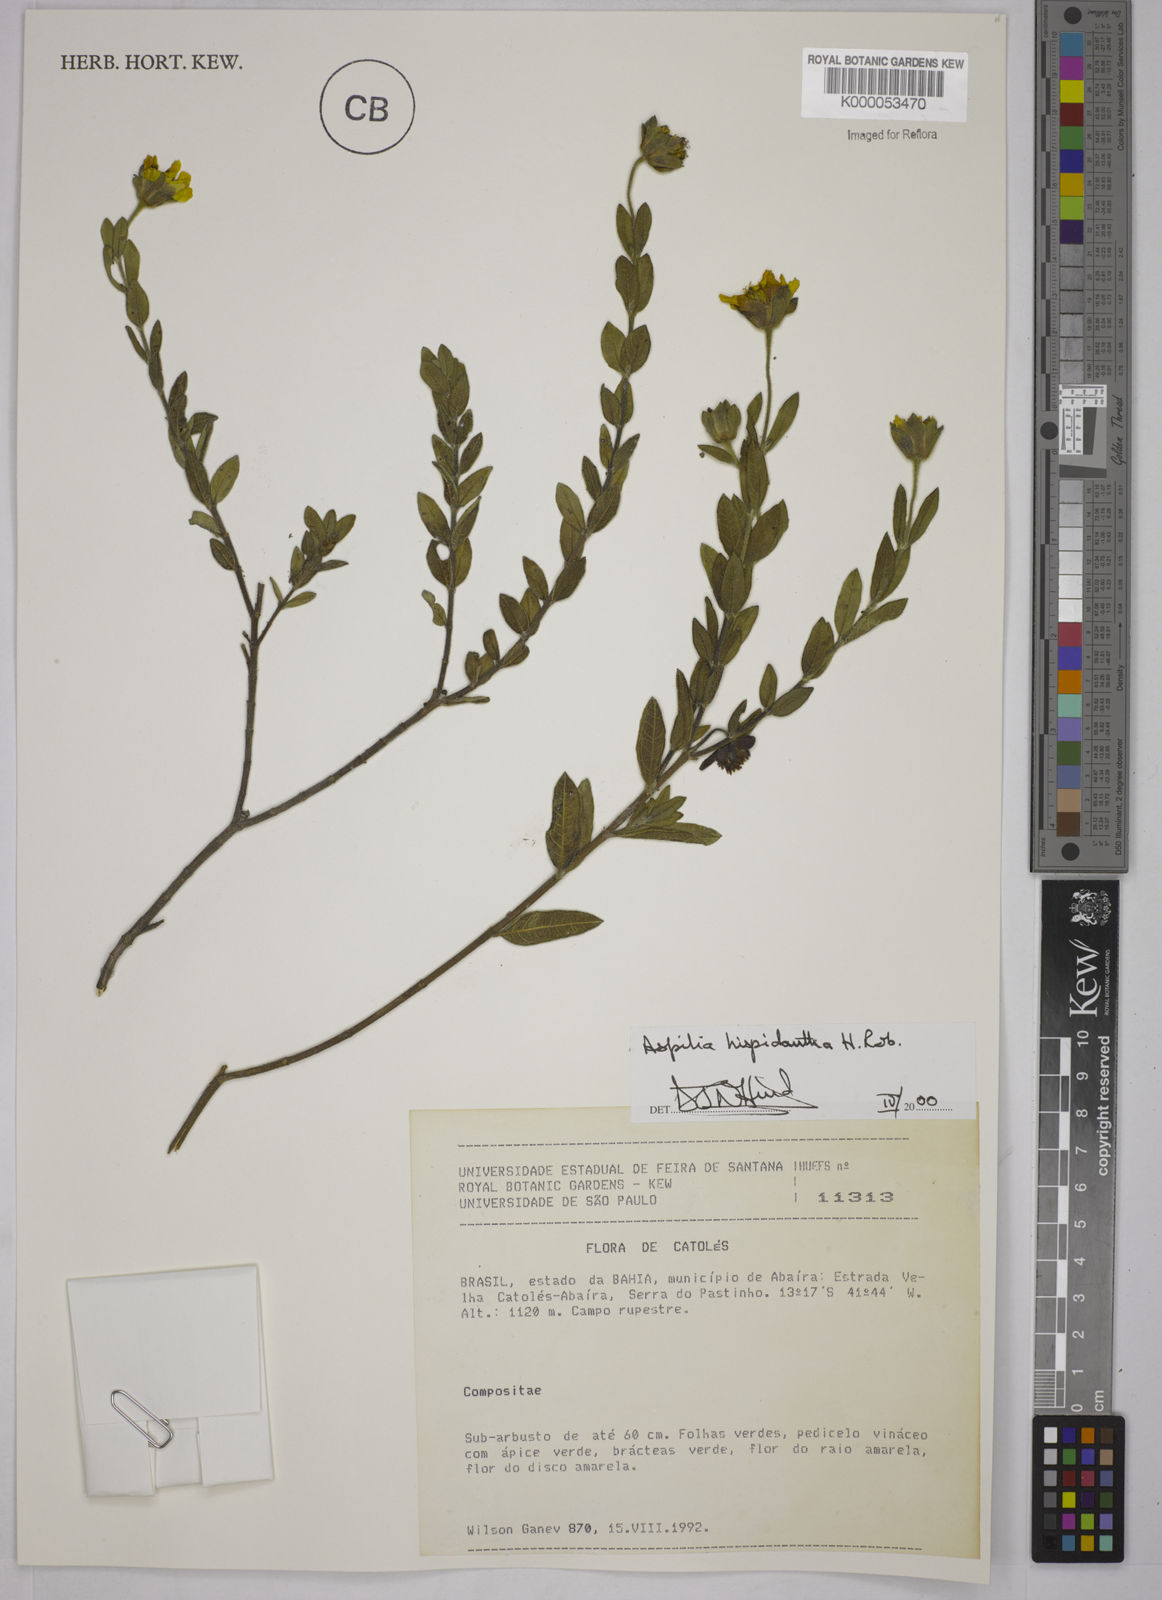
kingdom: Plantae
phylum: Tracheophyta
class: Magnoliopsida
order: Asterales
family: Asteraceae
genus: Wedelia
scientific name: Wedelia subalpestris
